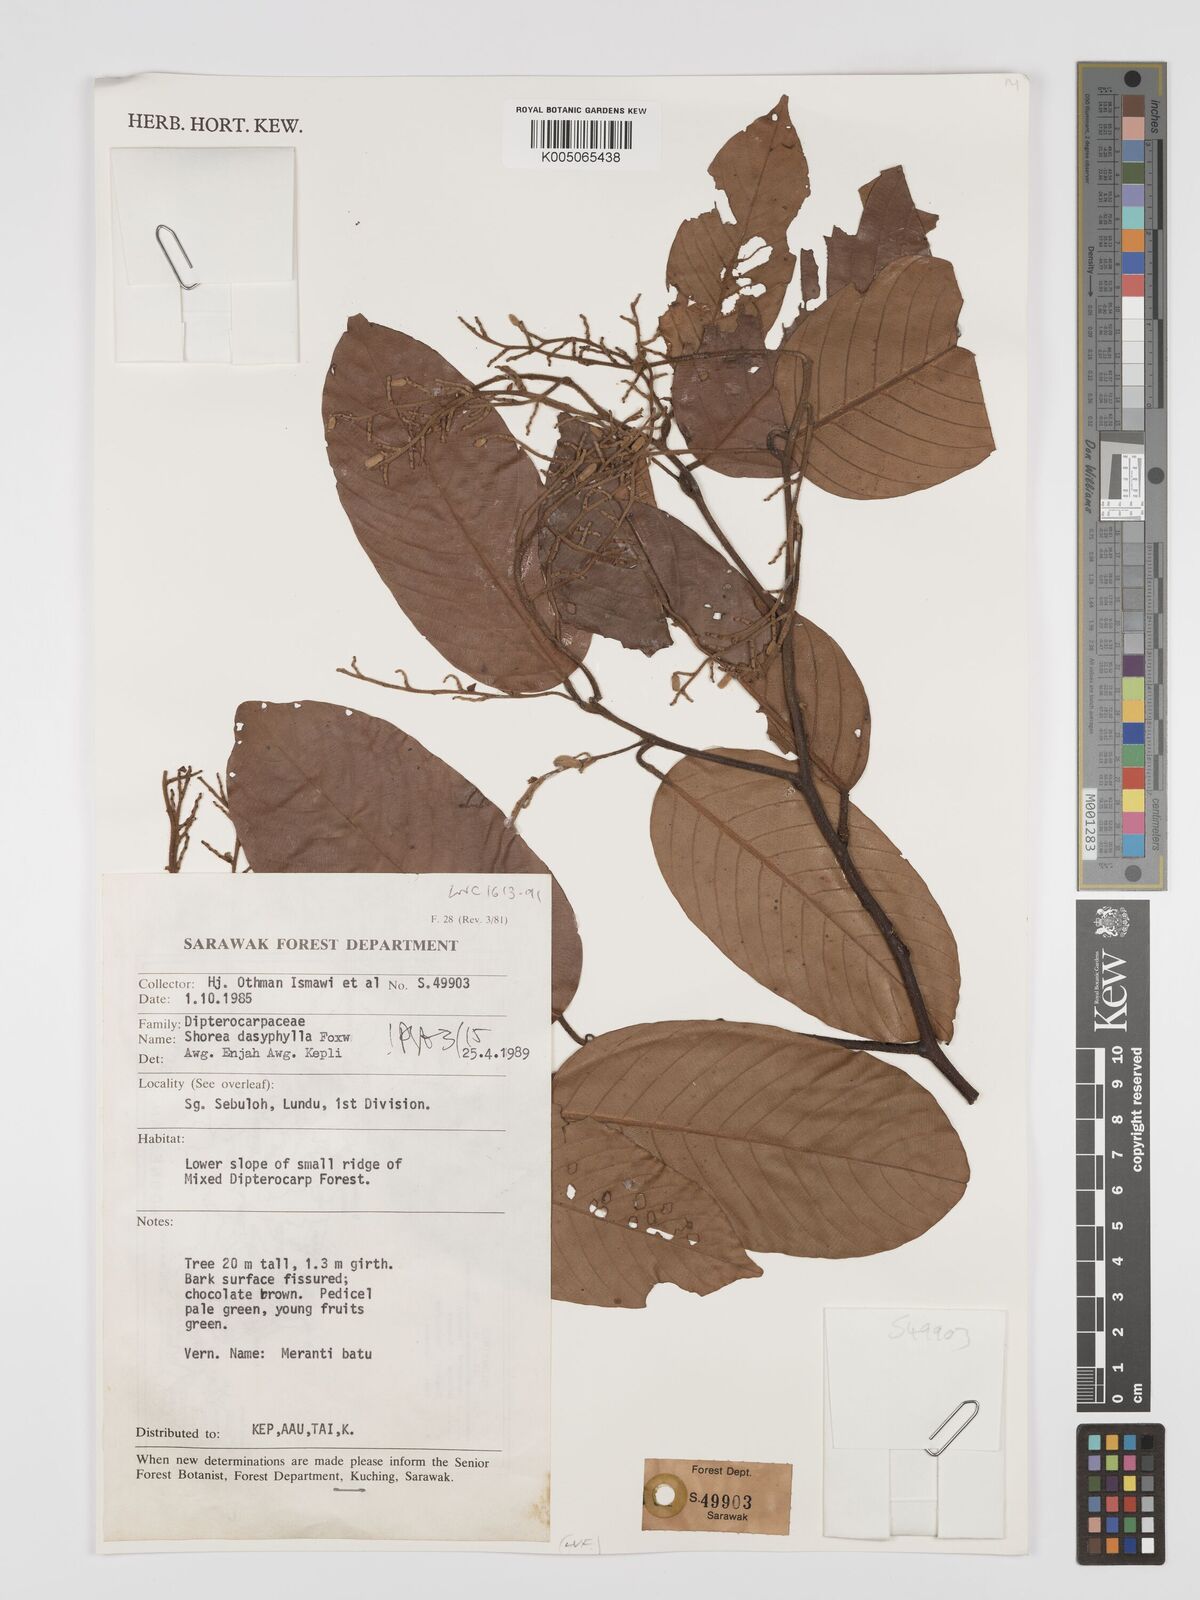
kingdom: Plantae
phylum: Tracheophyta
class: Magnoliopsida
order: Malvales
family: Dipterocarpaceae
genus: Shorea
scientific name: Shorea dasyphylla
